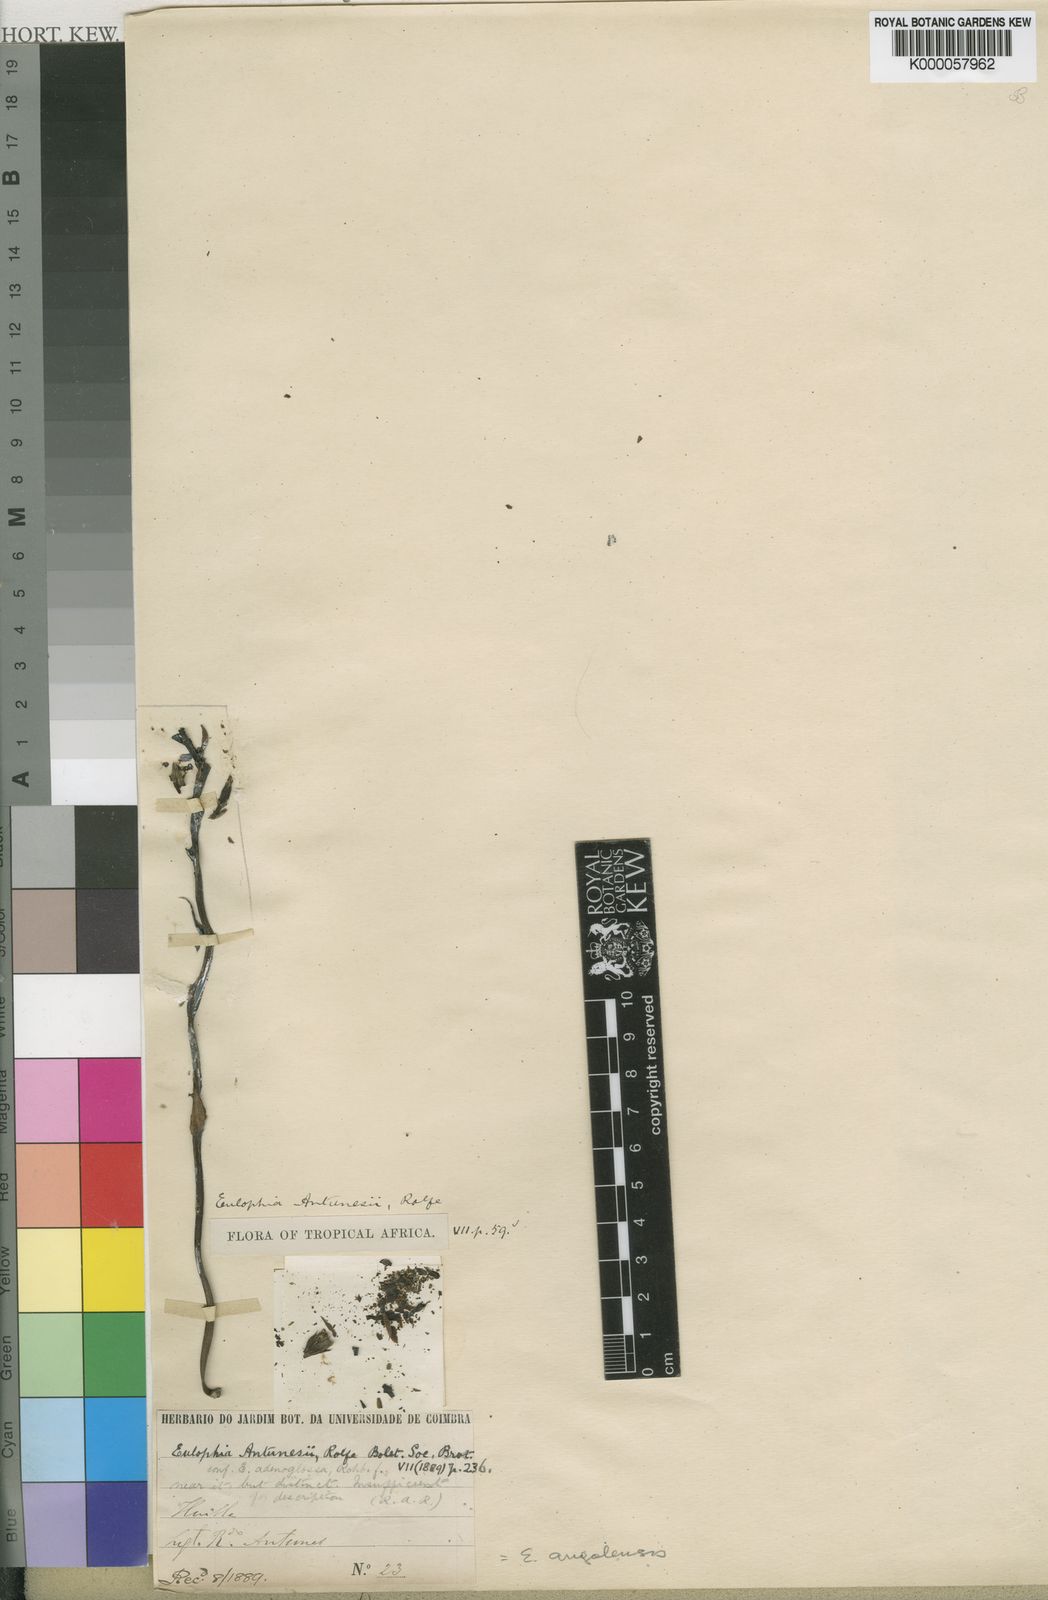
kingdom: Plantae
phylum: Tracheophyta
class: Liliopsida
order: Asparagales
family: Orchidaceae
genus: Eulophia
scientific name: Eulophia angolensis
